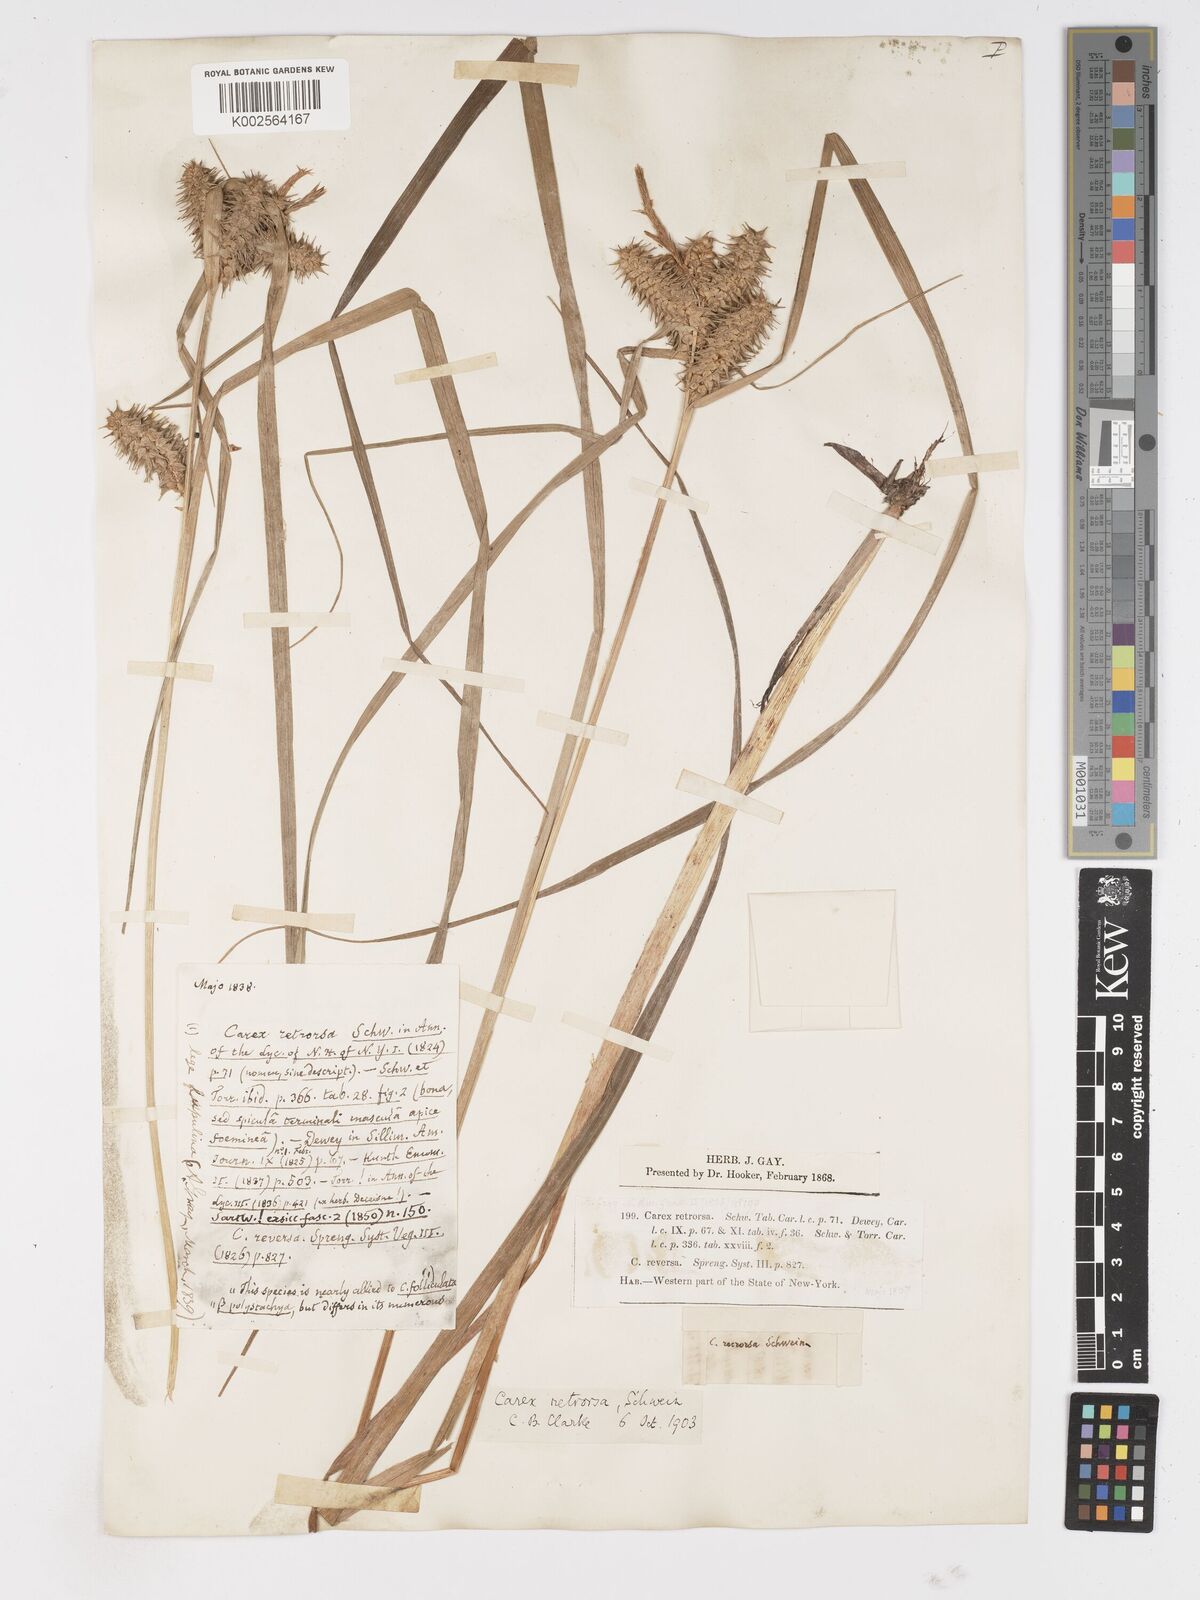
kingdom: Plantae
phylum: Tracheophyta
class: Liliopsida
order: Poales
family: Cyperaceae
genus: Carex
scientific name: Carex retrorsa
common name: Knot-sheath sedge
